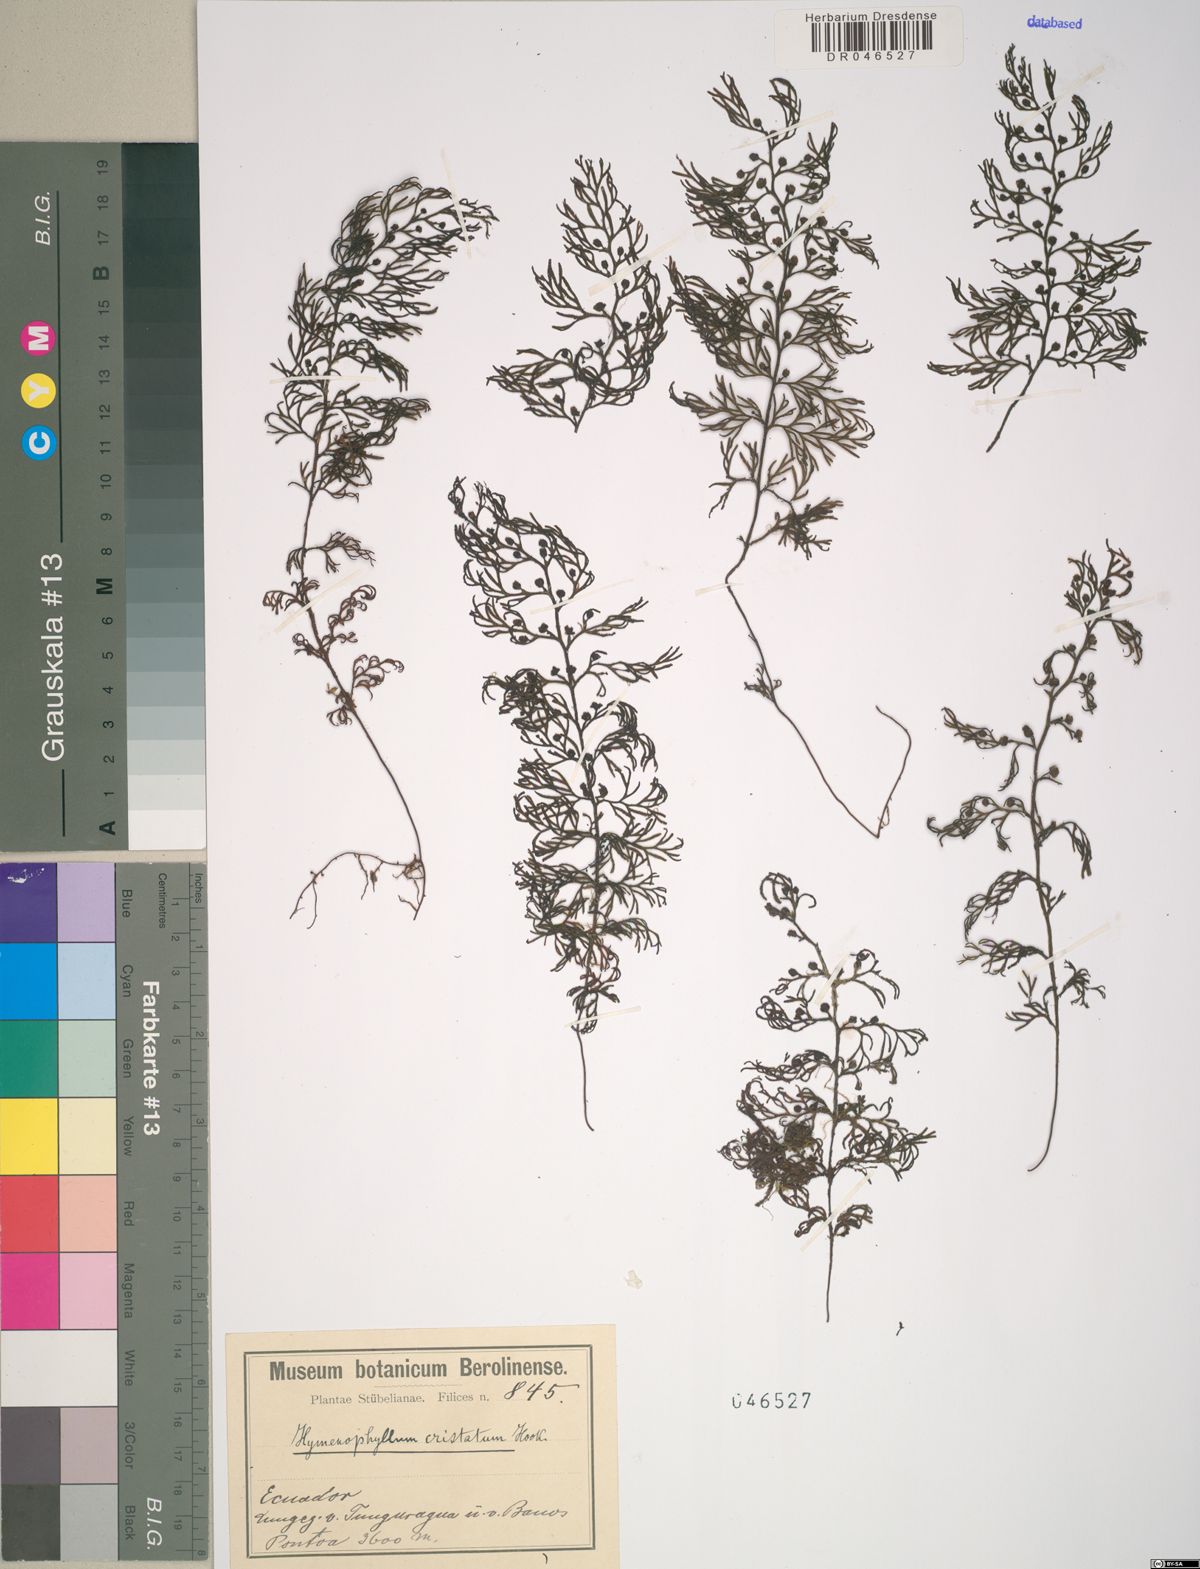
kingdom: Plantae
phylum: Tracheophyta
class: Polypodiopsida
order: Hymenophyllales
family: Hymenophyllaceae
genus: Hymenophyllum
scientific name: Hymenophyllum cristatum
